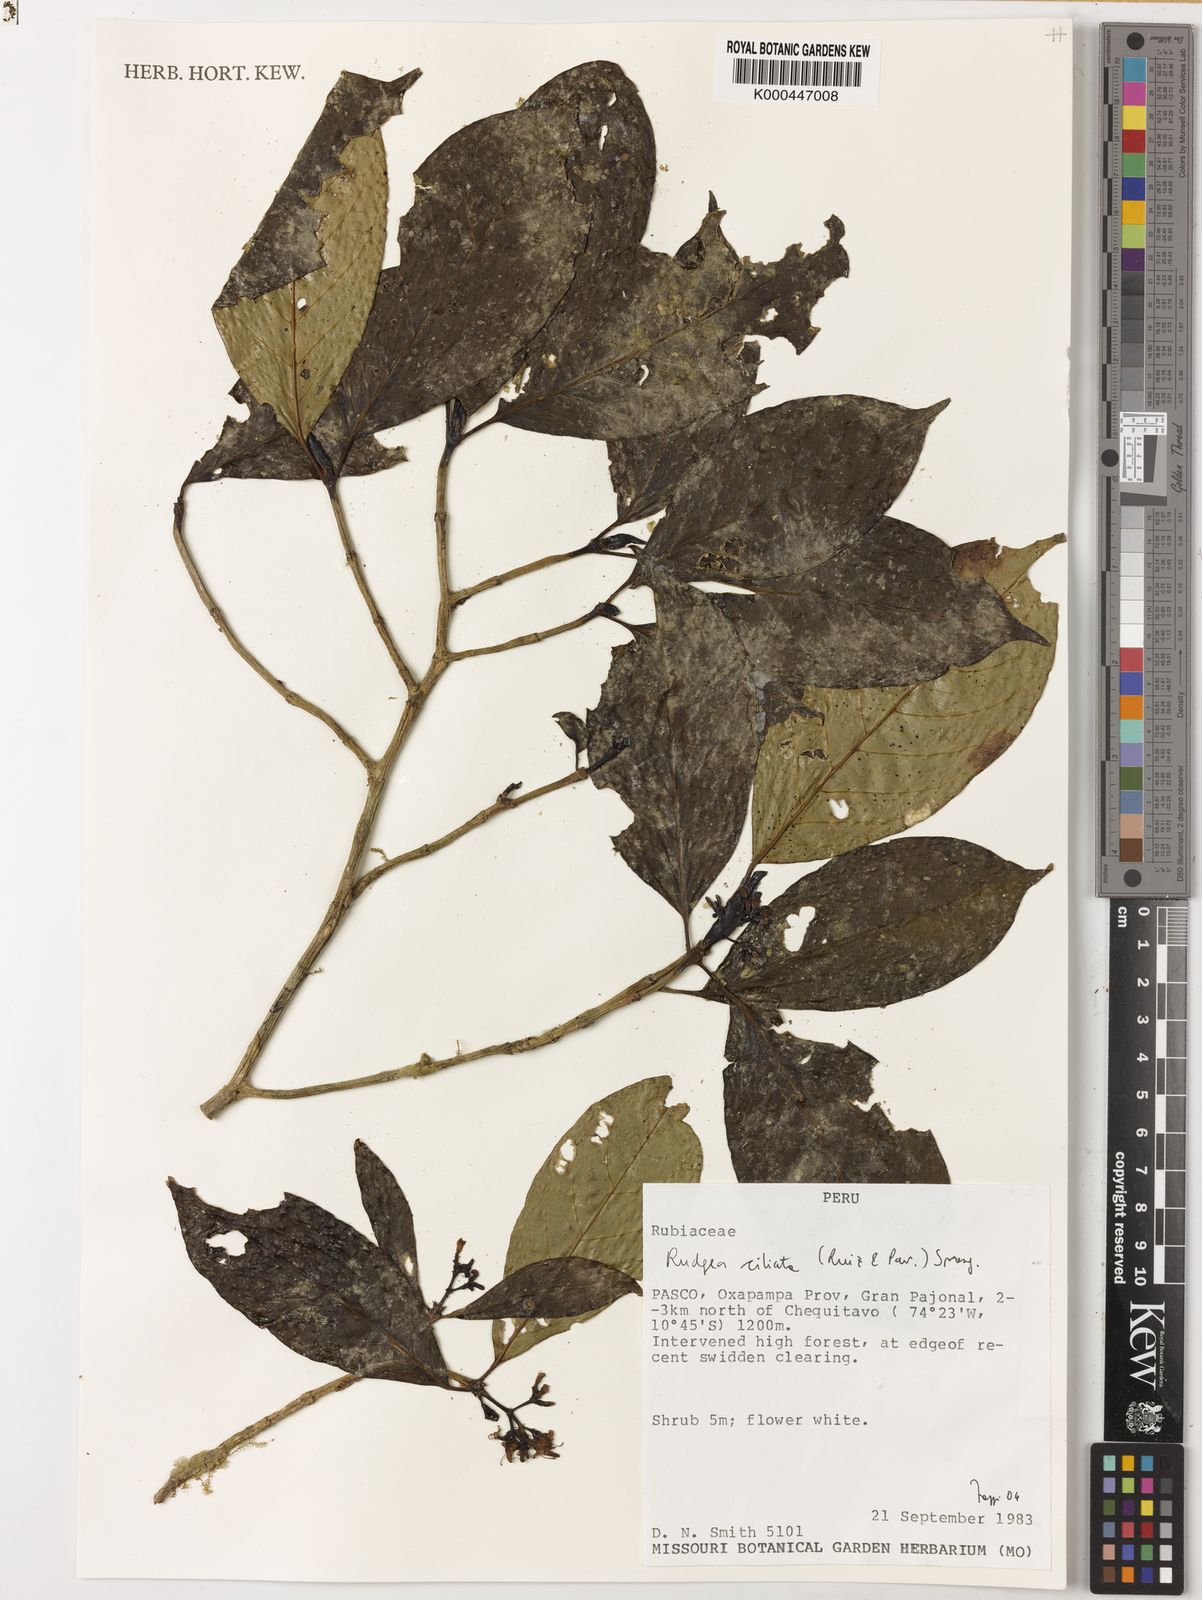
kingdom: Plantae
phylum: Tracheophyta
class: Magnoliopsida
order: Gentianales
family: Rubiaceae
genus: Rudgea
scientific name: Rudgea ciliata
